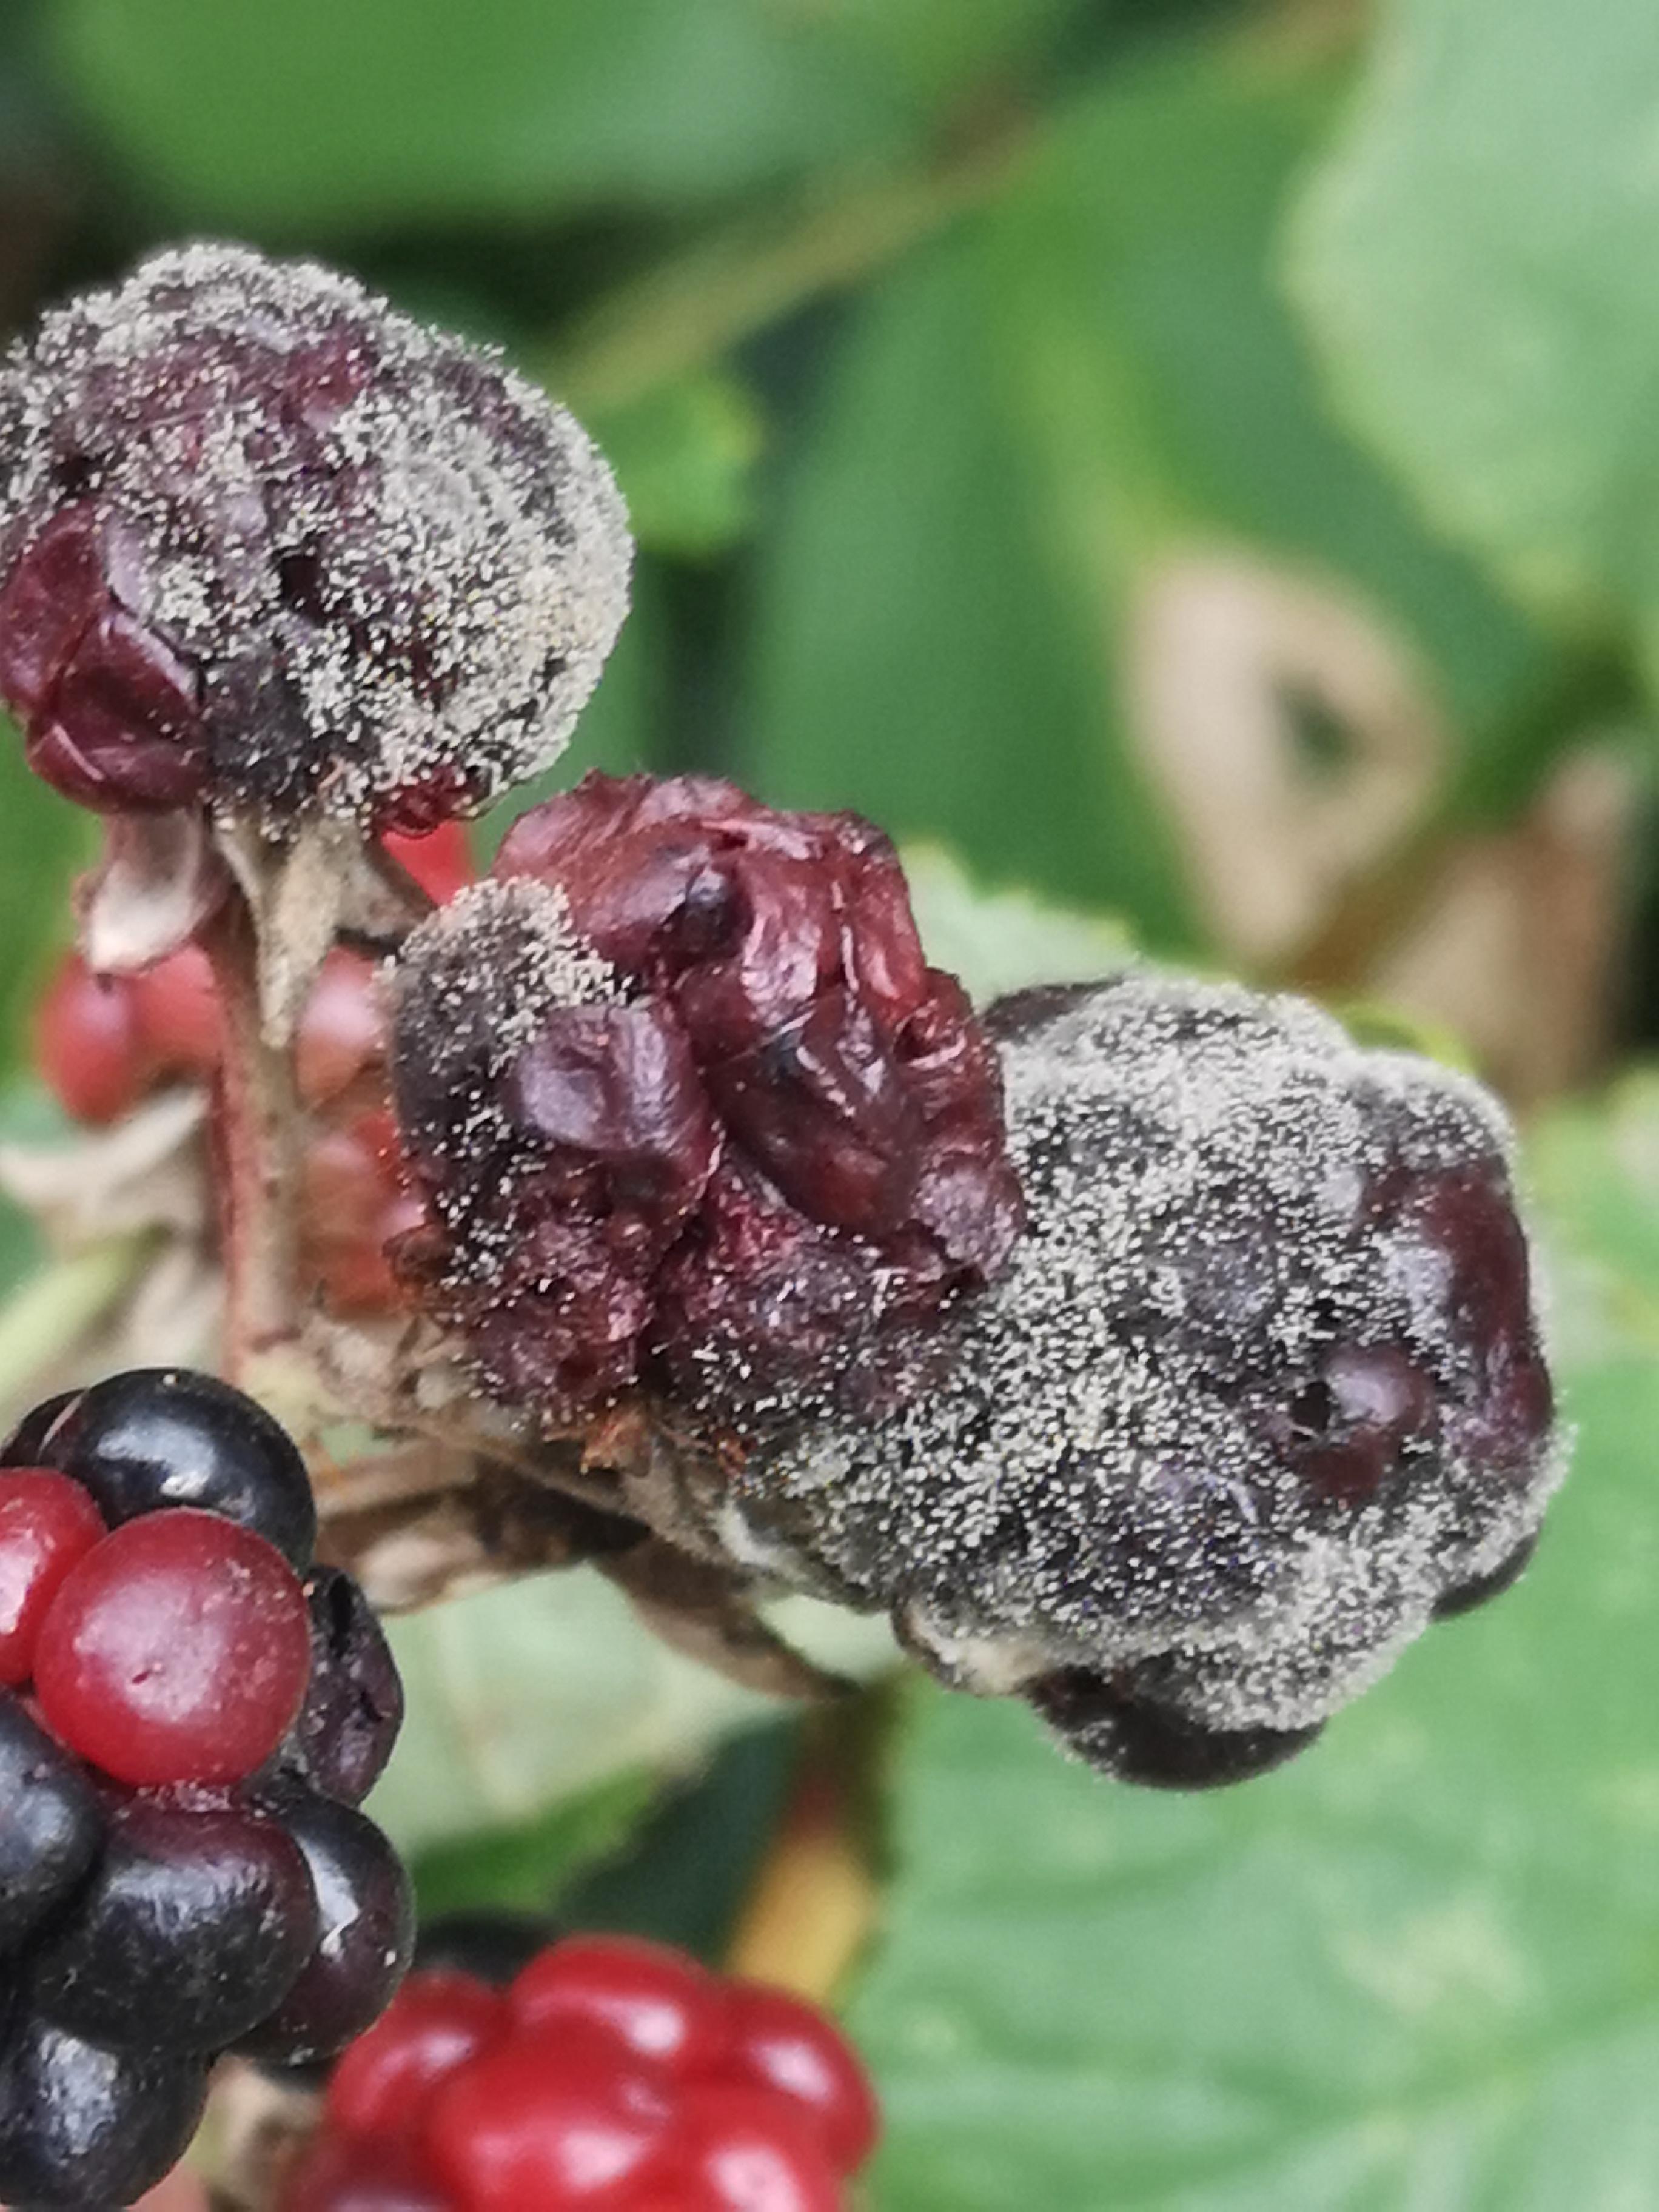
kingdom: Fungi
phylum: Ascomycota
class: Leotiomycetes
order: Helotiales
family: Sclerotiniaceae
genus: Botrytis
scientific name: Botrytis cinerea
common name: Grey mould
